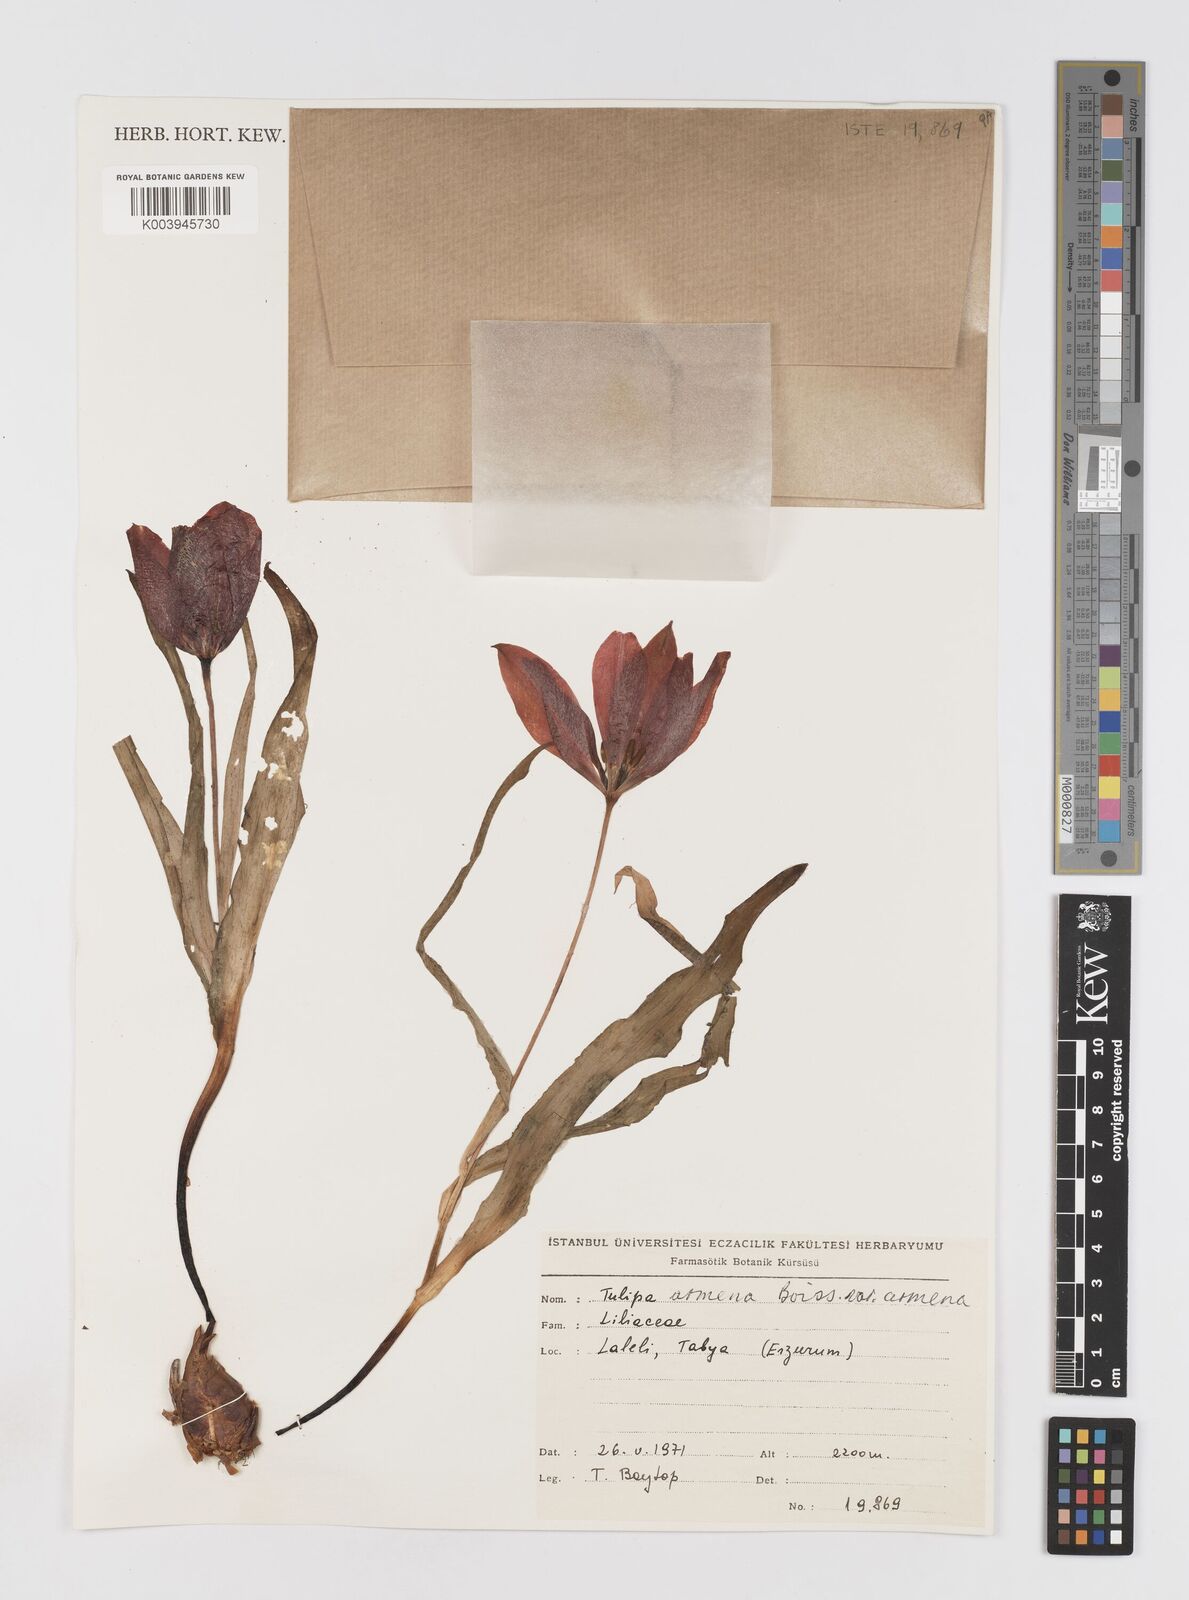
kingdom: Plantae
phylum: Tracheophyta
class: Liliopsida
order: Liliales
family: Liliaceae
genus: Tulipa
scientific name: Tulipa armena
